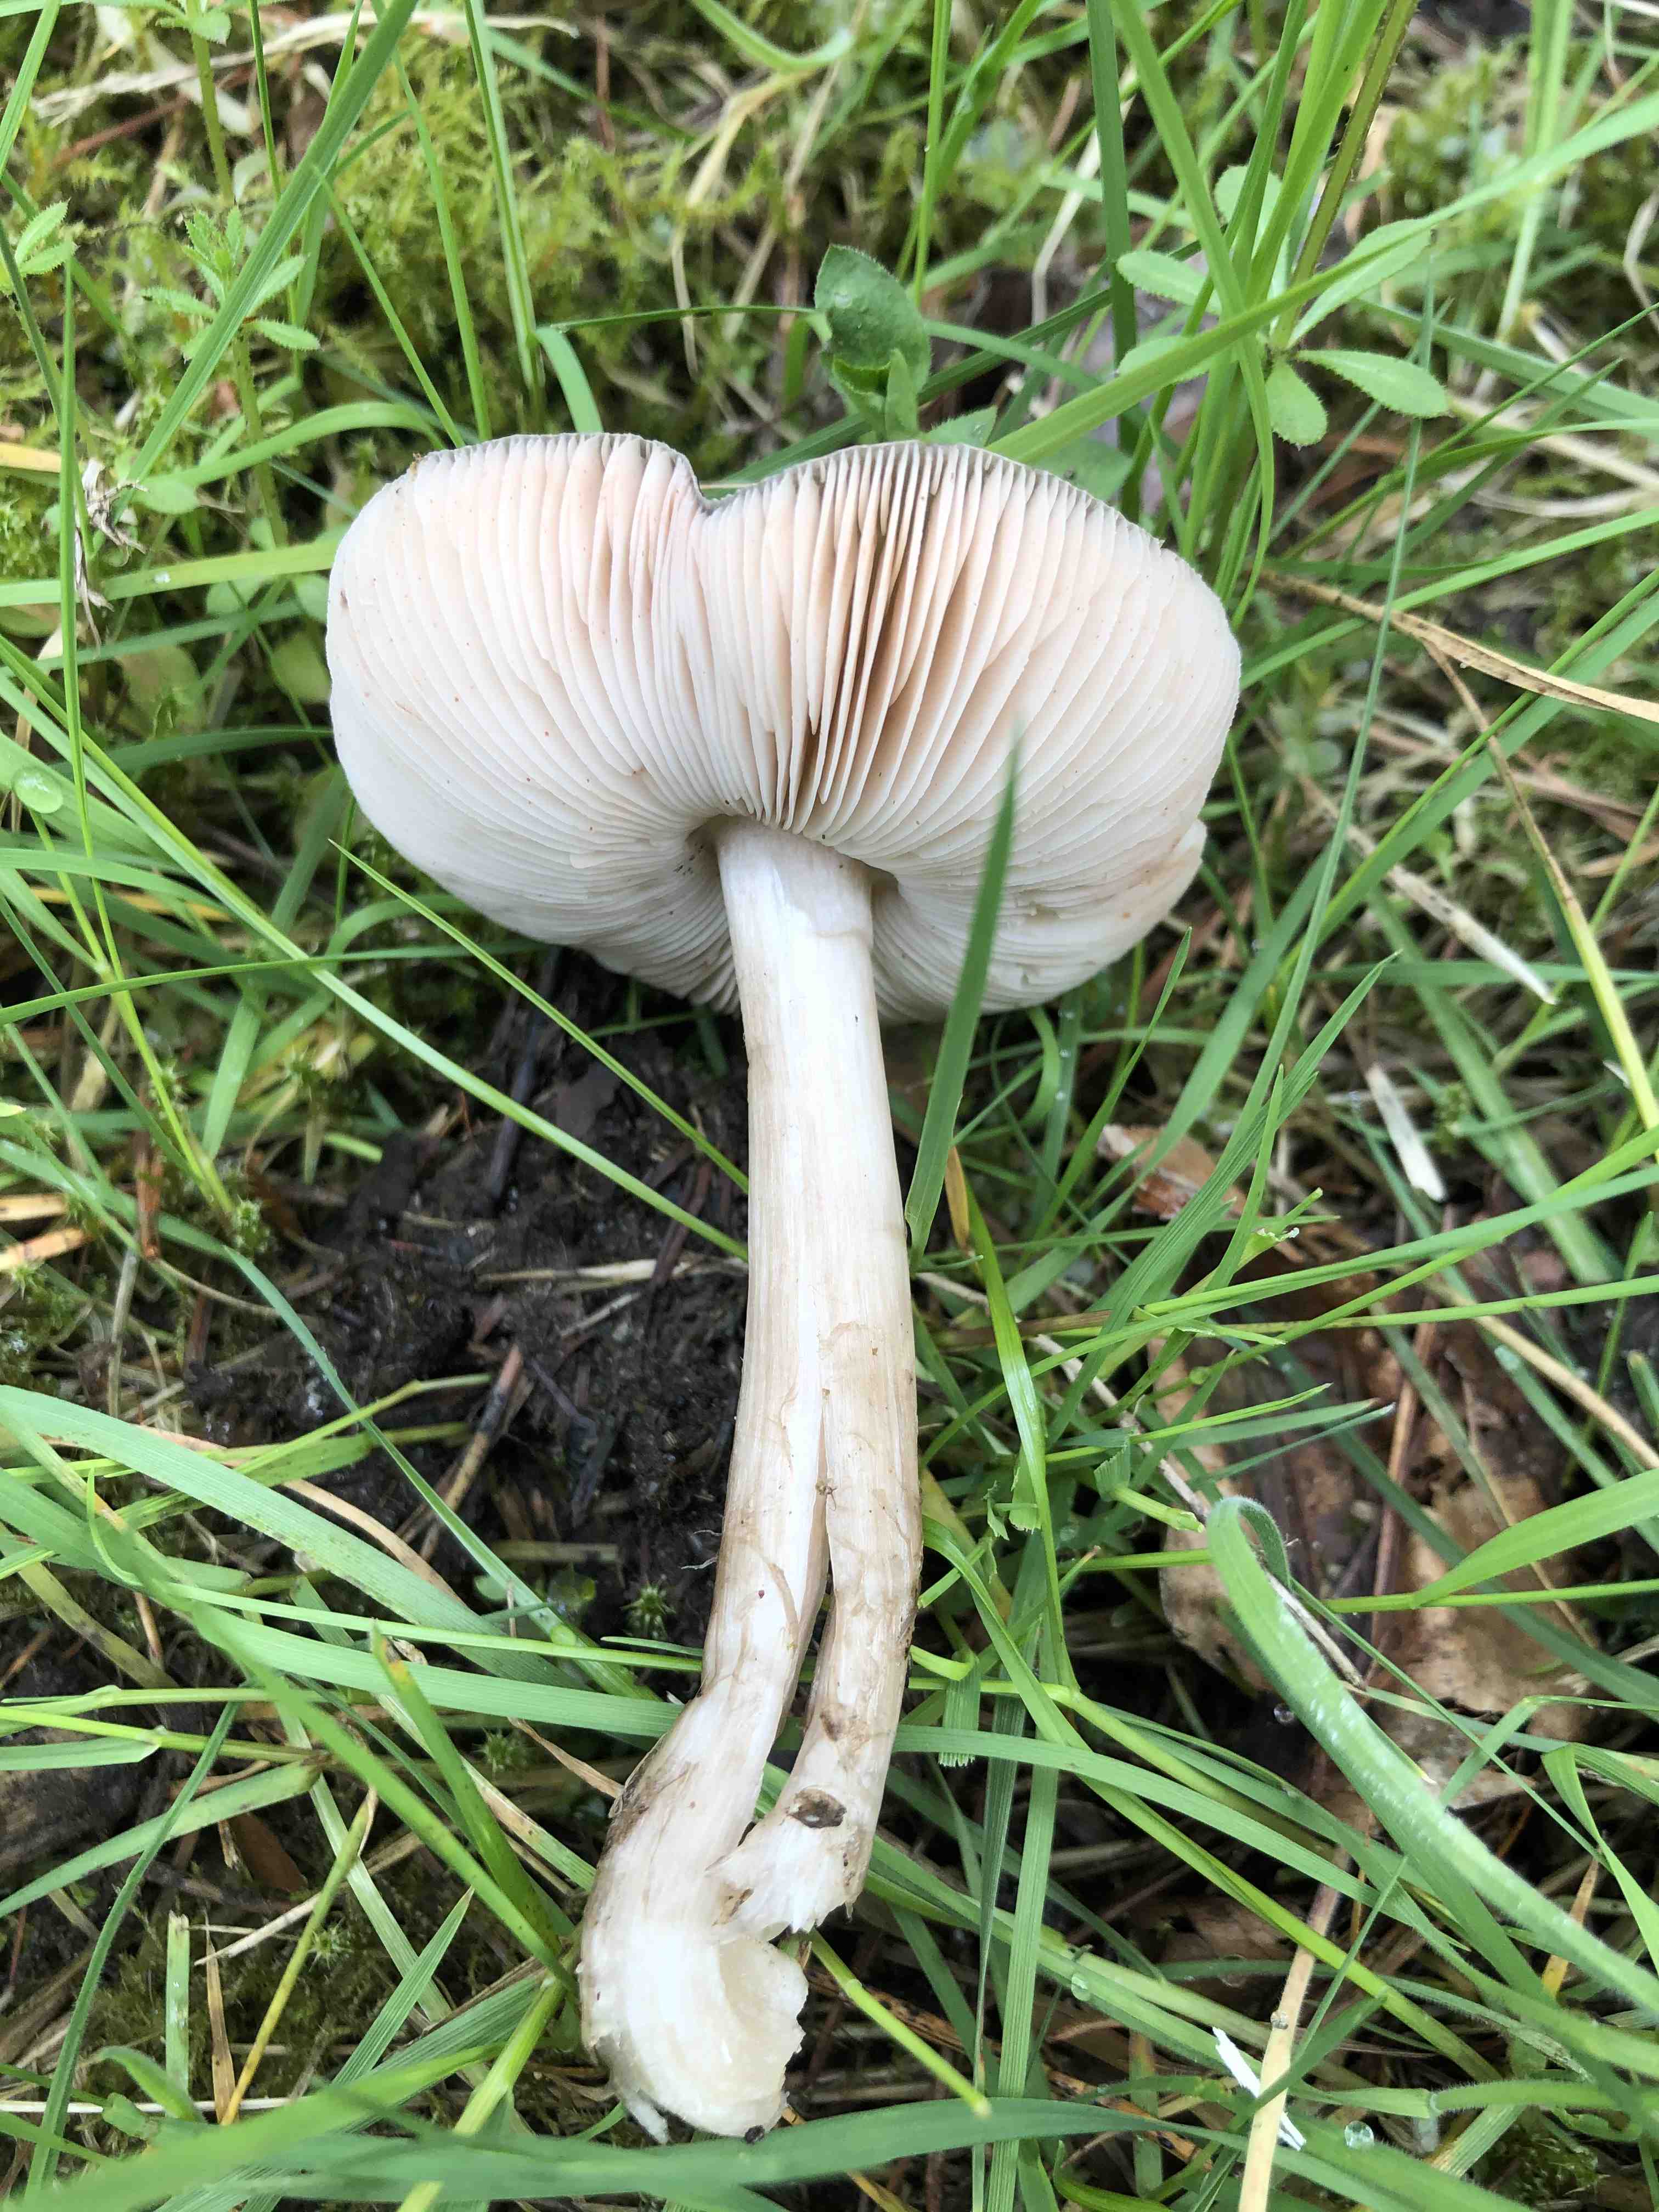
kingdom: Fungi
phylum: Basidiomycota
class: Agaricomycetes
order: Agaricales
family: Pluteaceae
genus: Pluteus
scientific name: Pluteus
